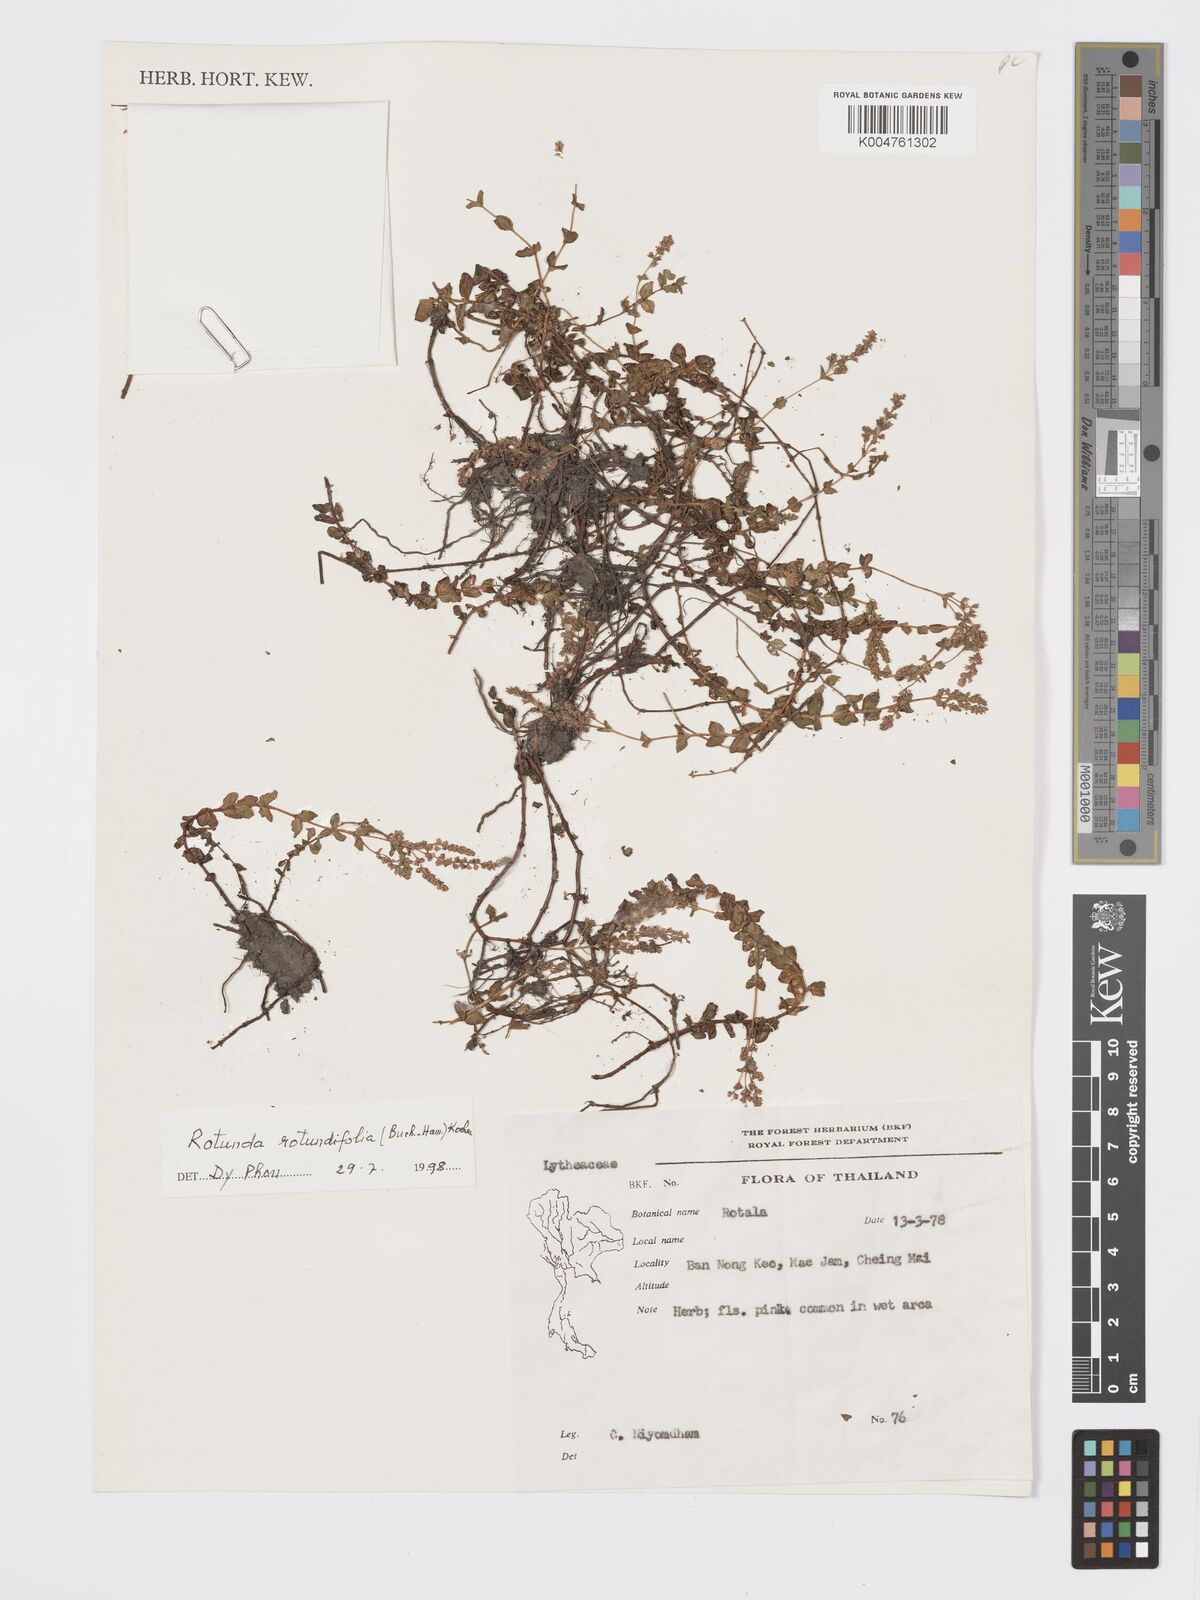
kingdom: Plantae
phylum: Tracheophyta
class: Magnoliopsida
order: Myrtales
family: Lythraceae
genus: Rotala
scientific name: Rotala rotundifolia
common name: Roundleaf toothcup
